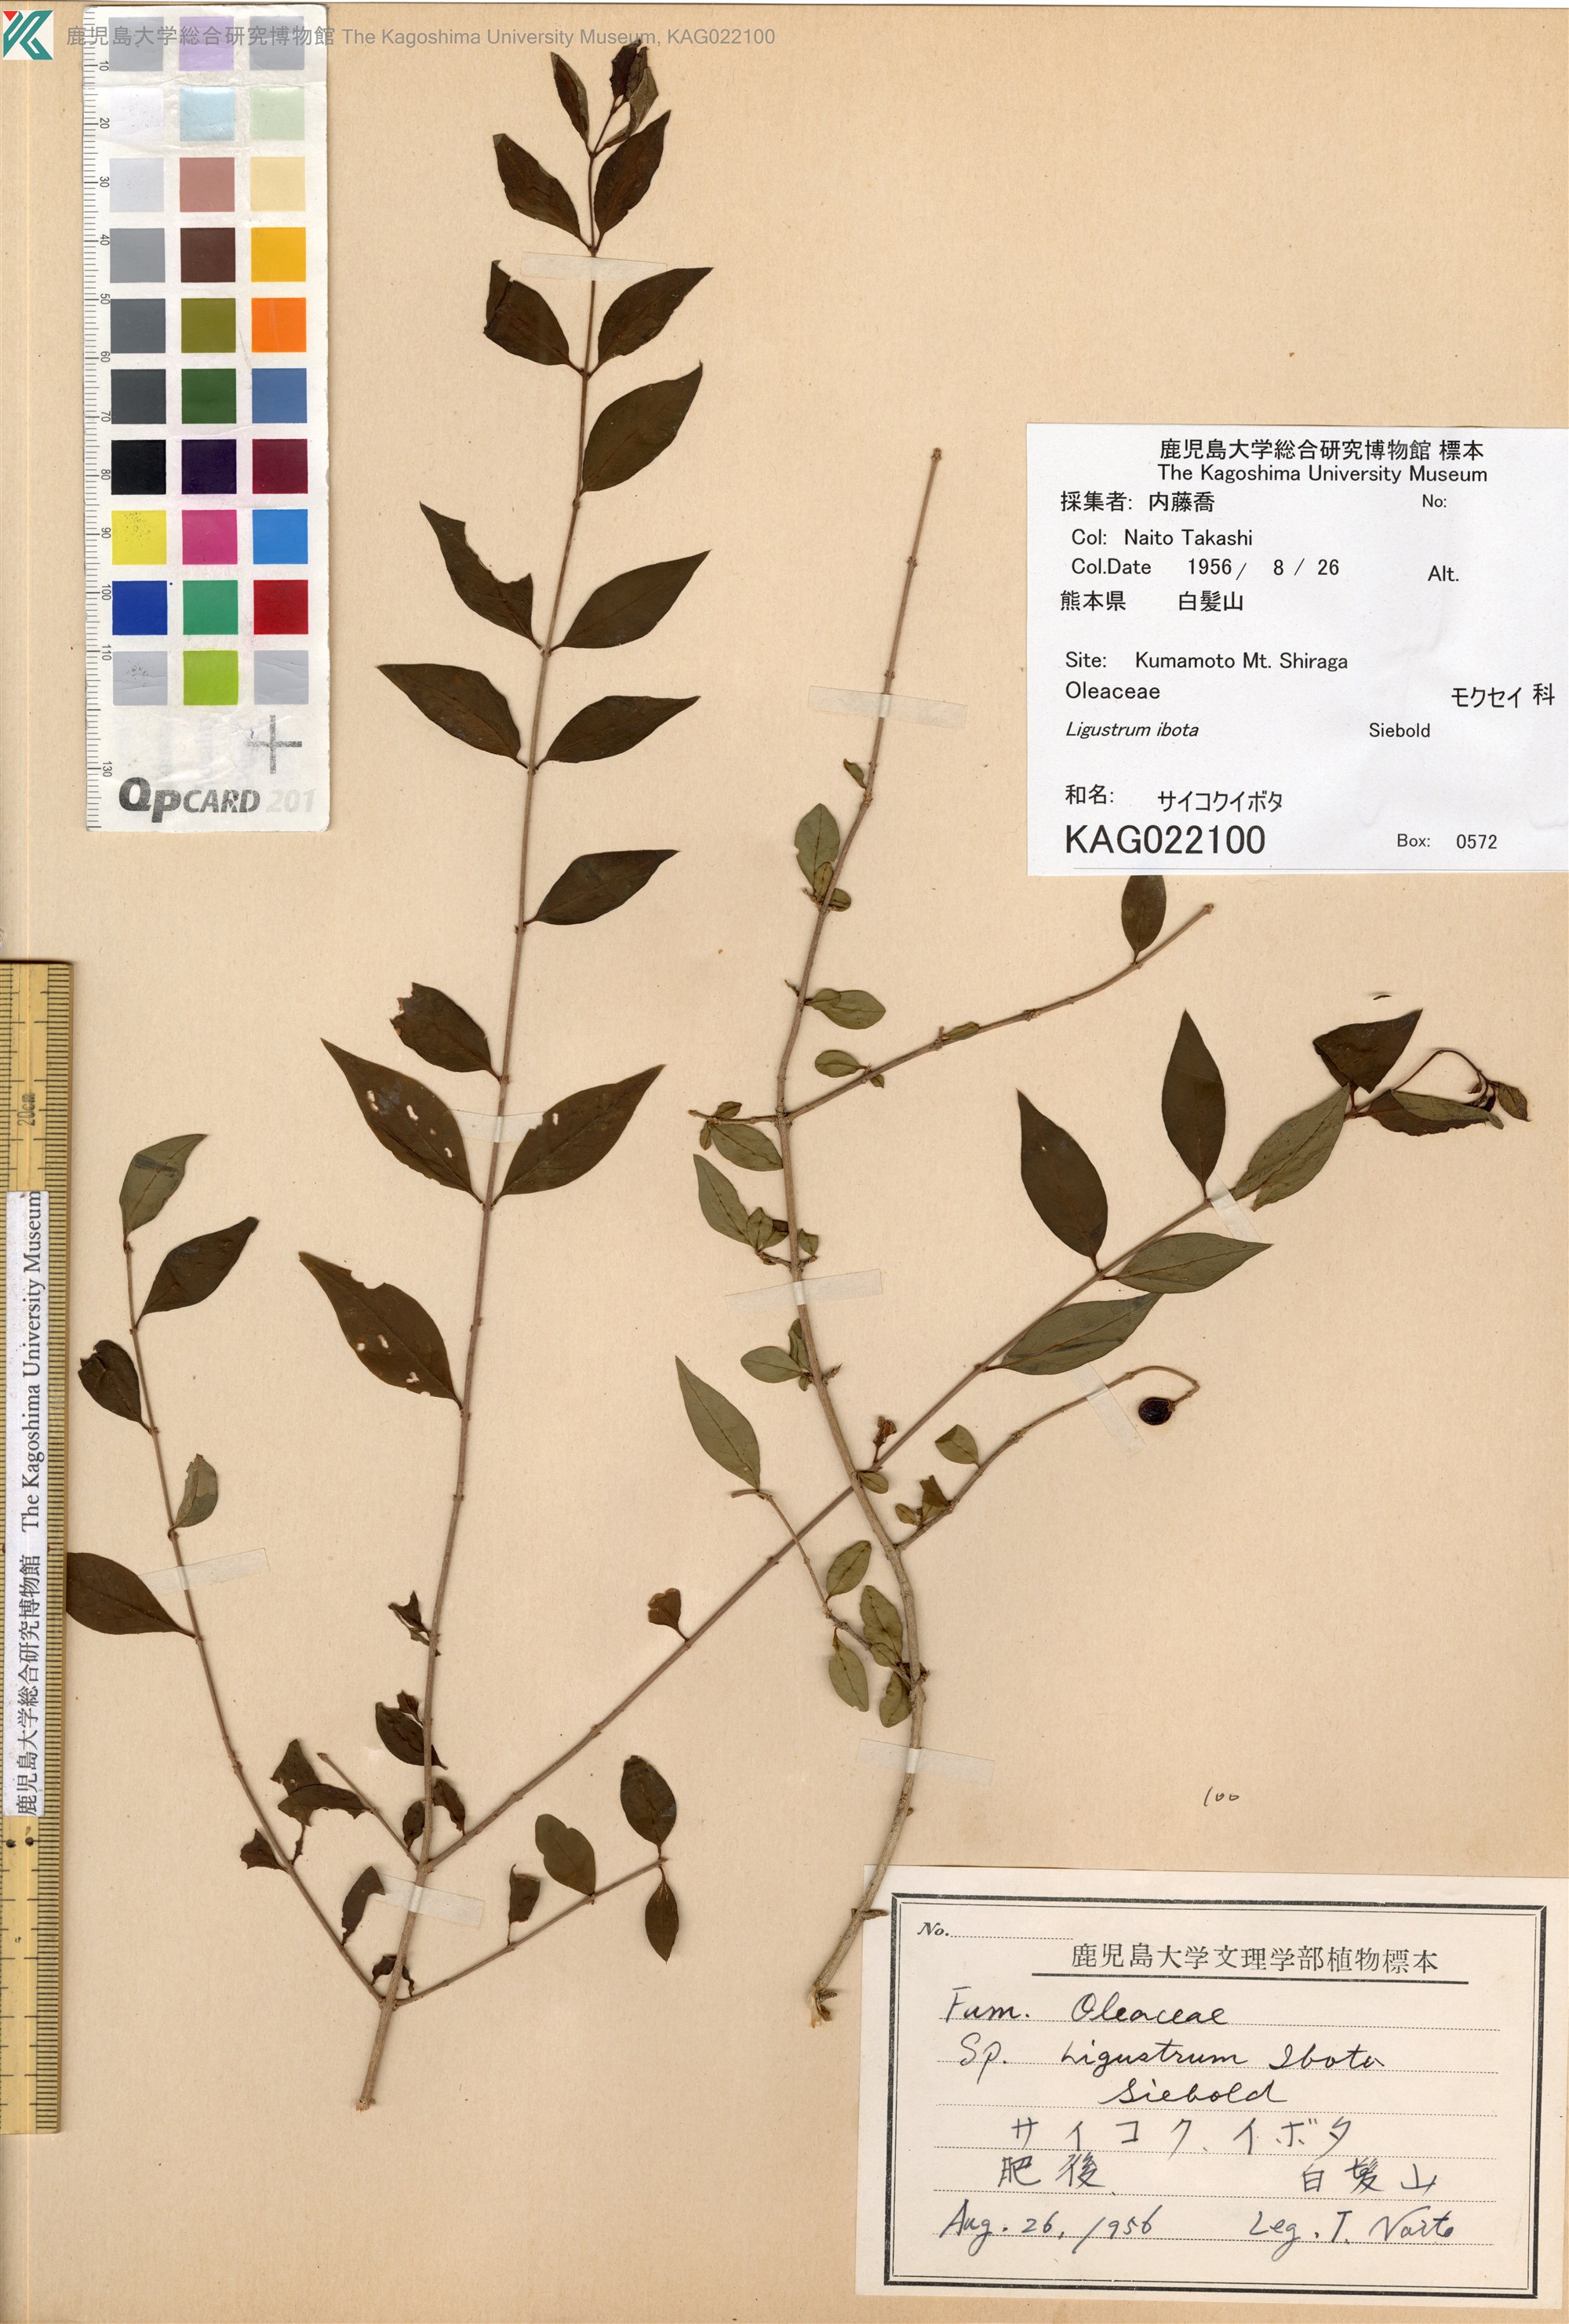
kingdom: Plantae
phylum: Tracheophyta
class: Magnoliopsida
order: Lamiales
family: Oleaceae
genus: Ligustrum
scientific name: Ligustrum ibota
